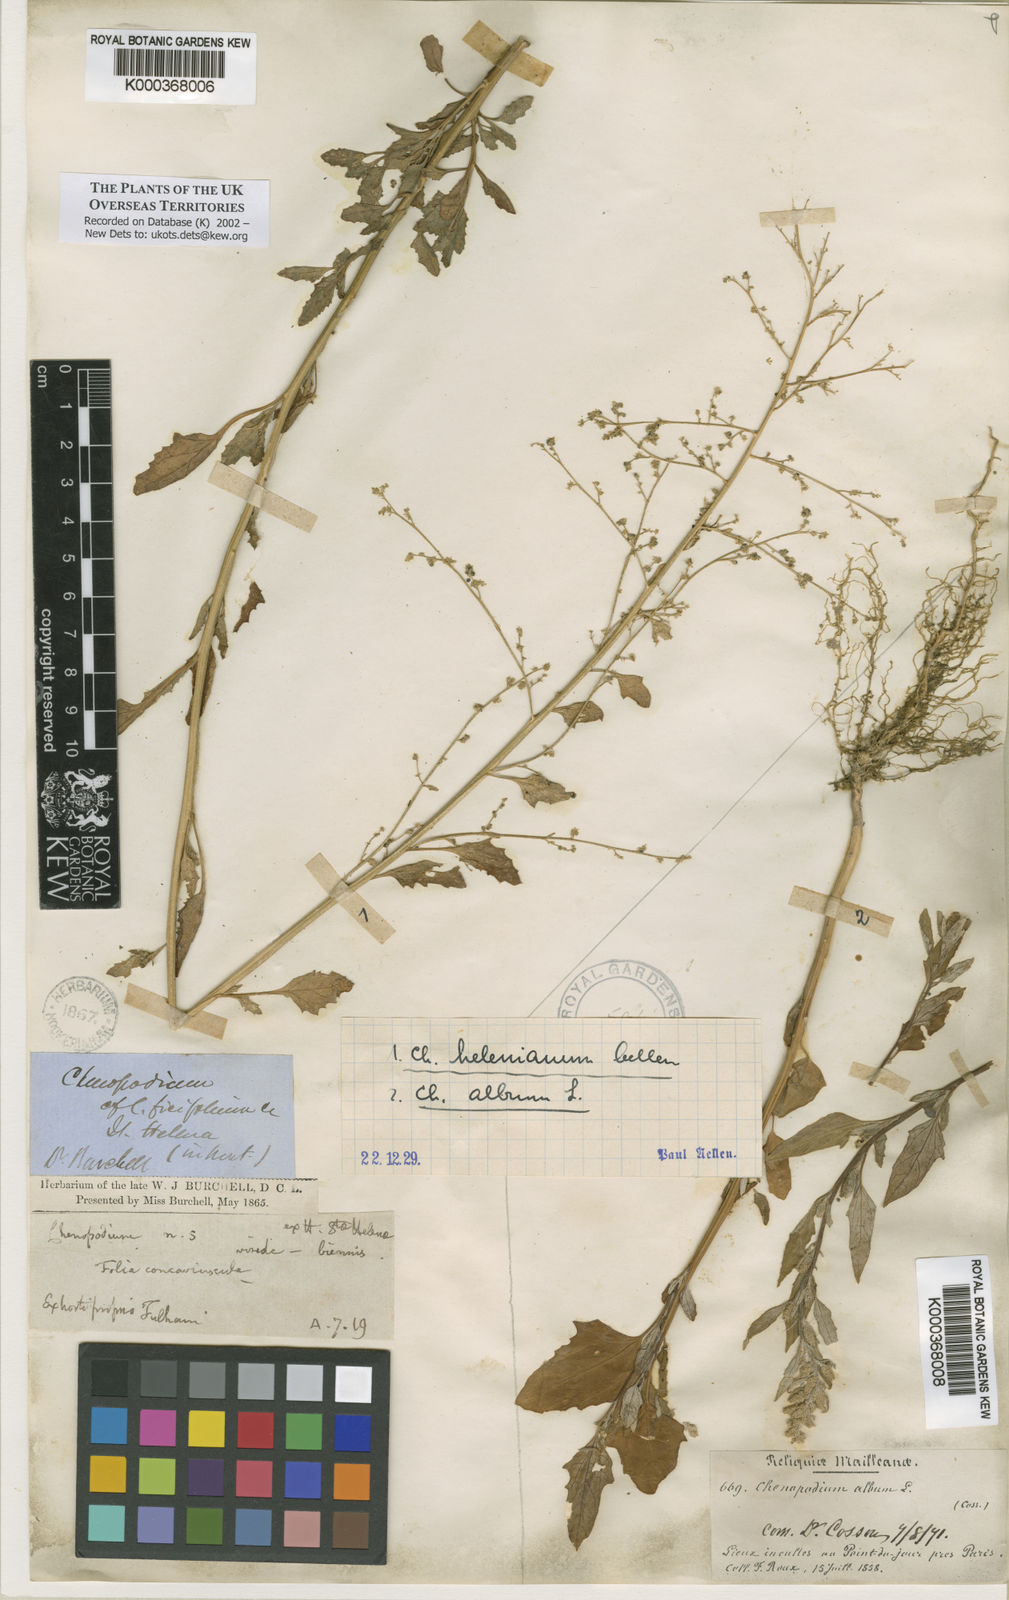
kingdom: Plantae
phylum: Tracheophyta
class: Magnoliopsida
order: Caryophyllales
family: Amaranthaceae
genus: Chenopodium
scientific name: Chenopodium
